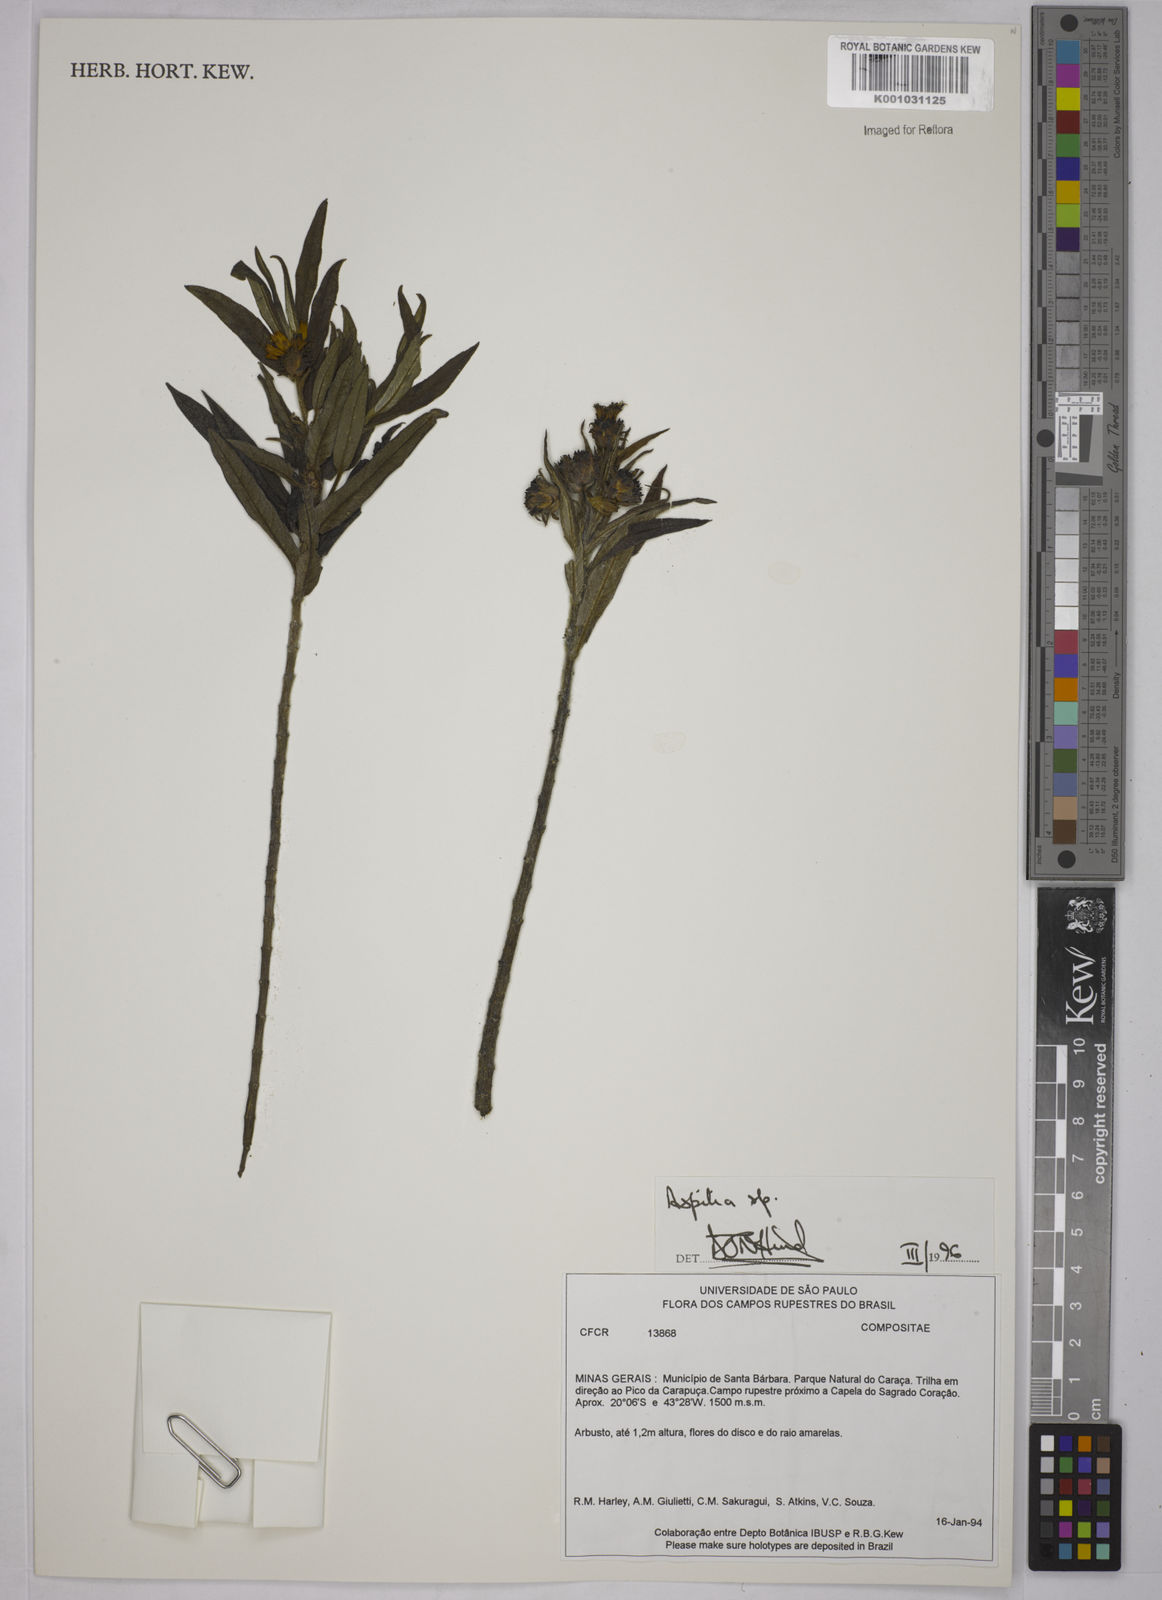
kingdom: Plantae
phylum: Tracheophyta
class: Magnoliopsida
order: Asterales
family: Asteraceae
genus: Aspilia
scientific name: Aspilia
